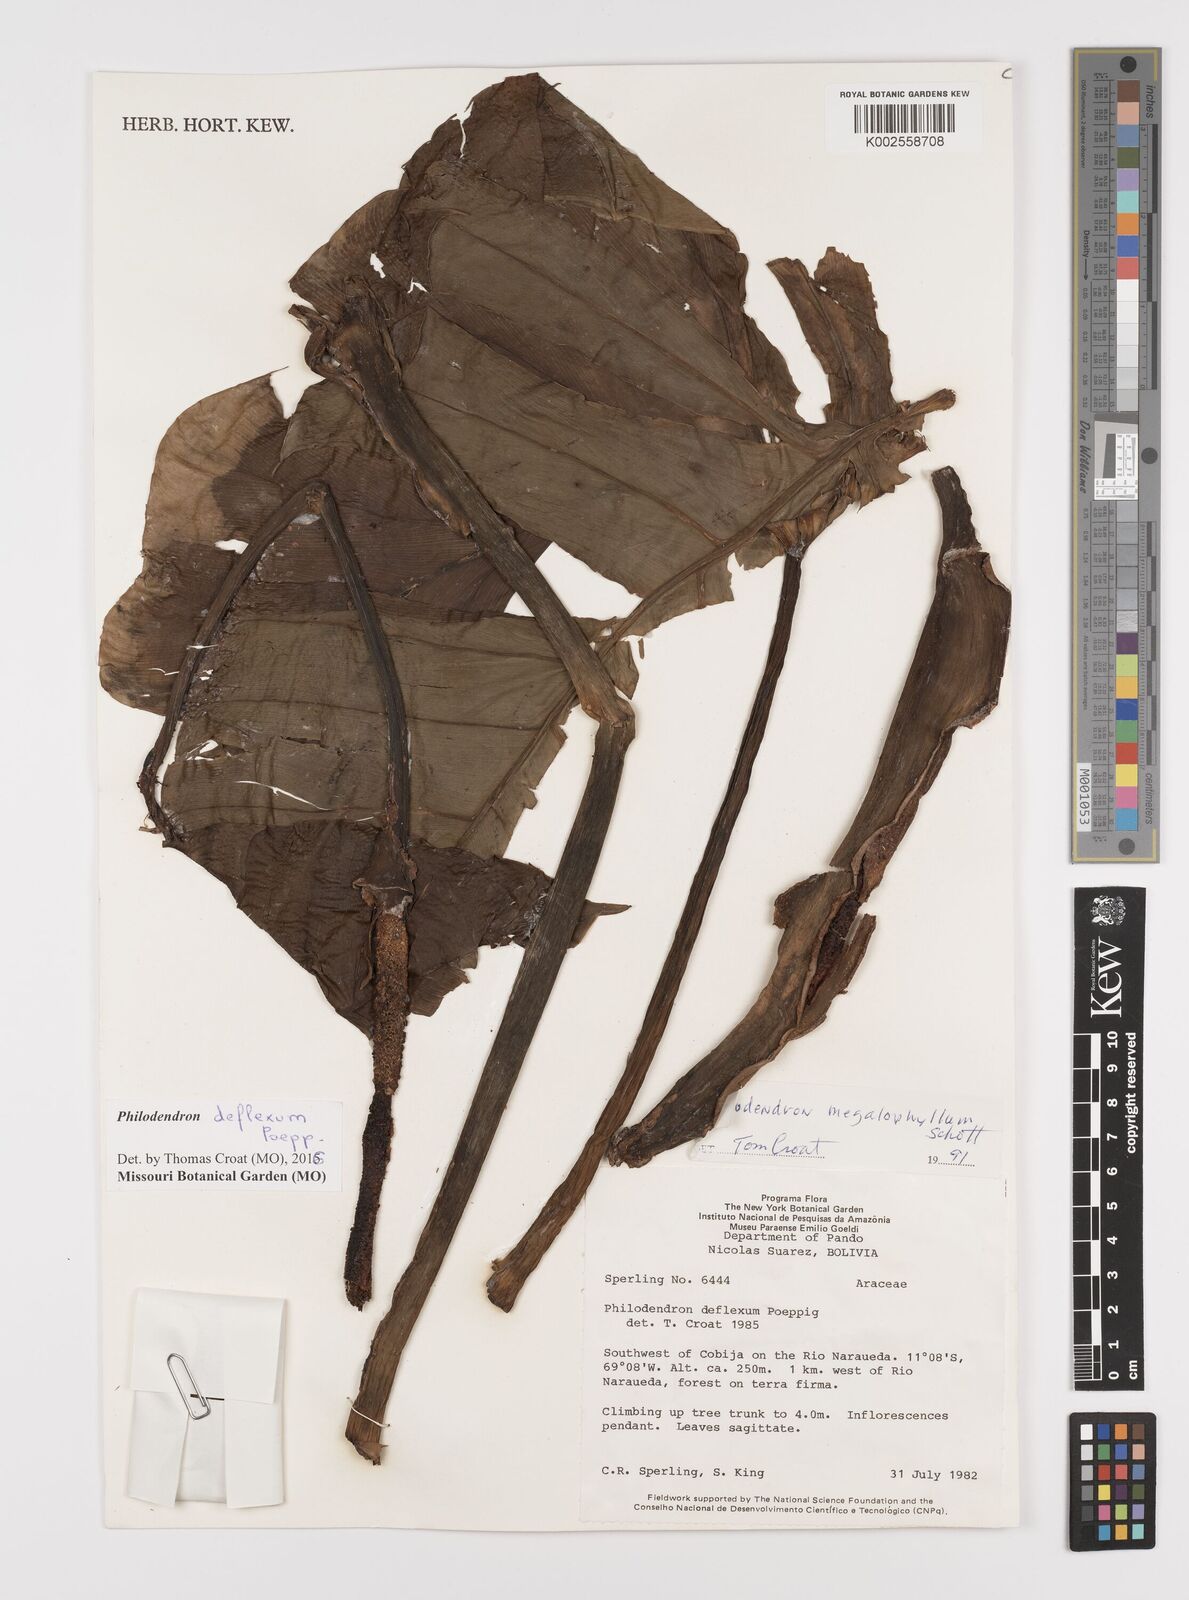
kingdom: Plantae
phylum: Tracheophyta
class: Liliopsida
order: Alismatales
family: Araceae
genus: Philodendron
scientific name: Philodendron deflexum
